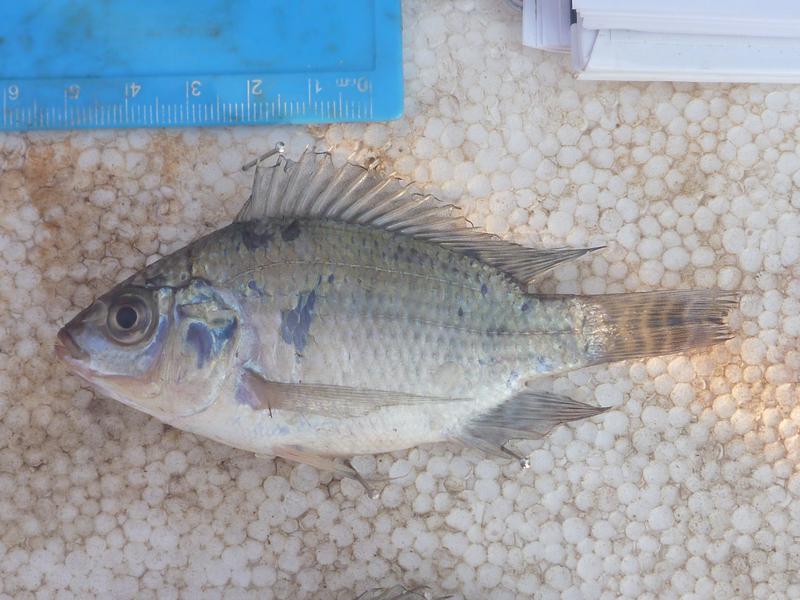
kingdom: Animalia
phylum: Chordata
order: Perciformes
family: Cichlidae
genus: Oreochromis
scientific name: Oreochromis niloticus
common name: Nile tilapia
